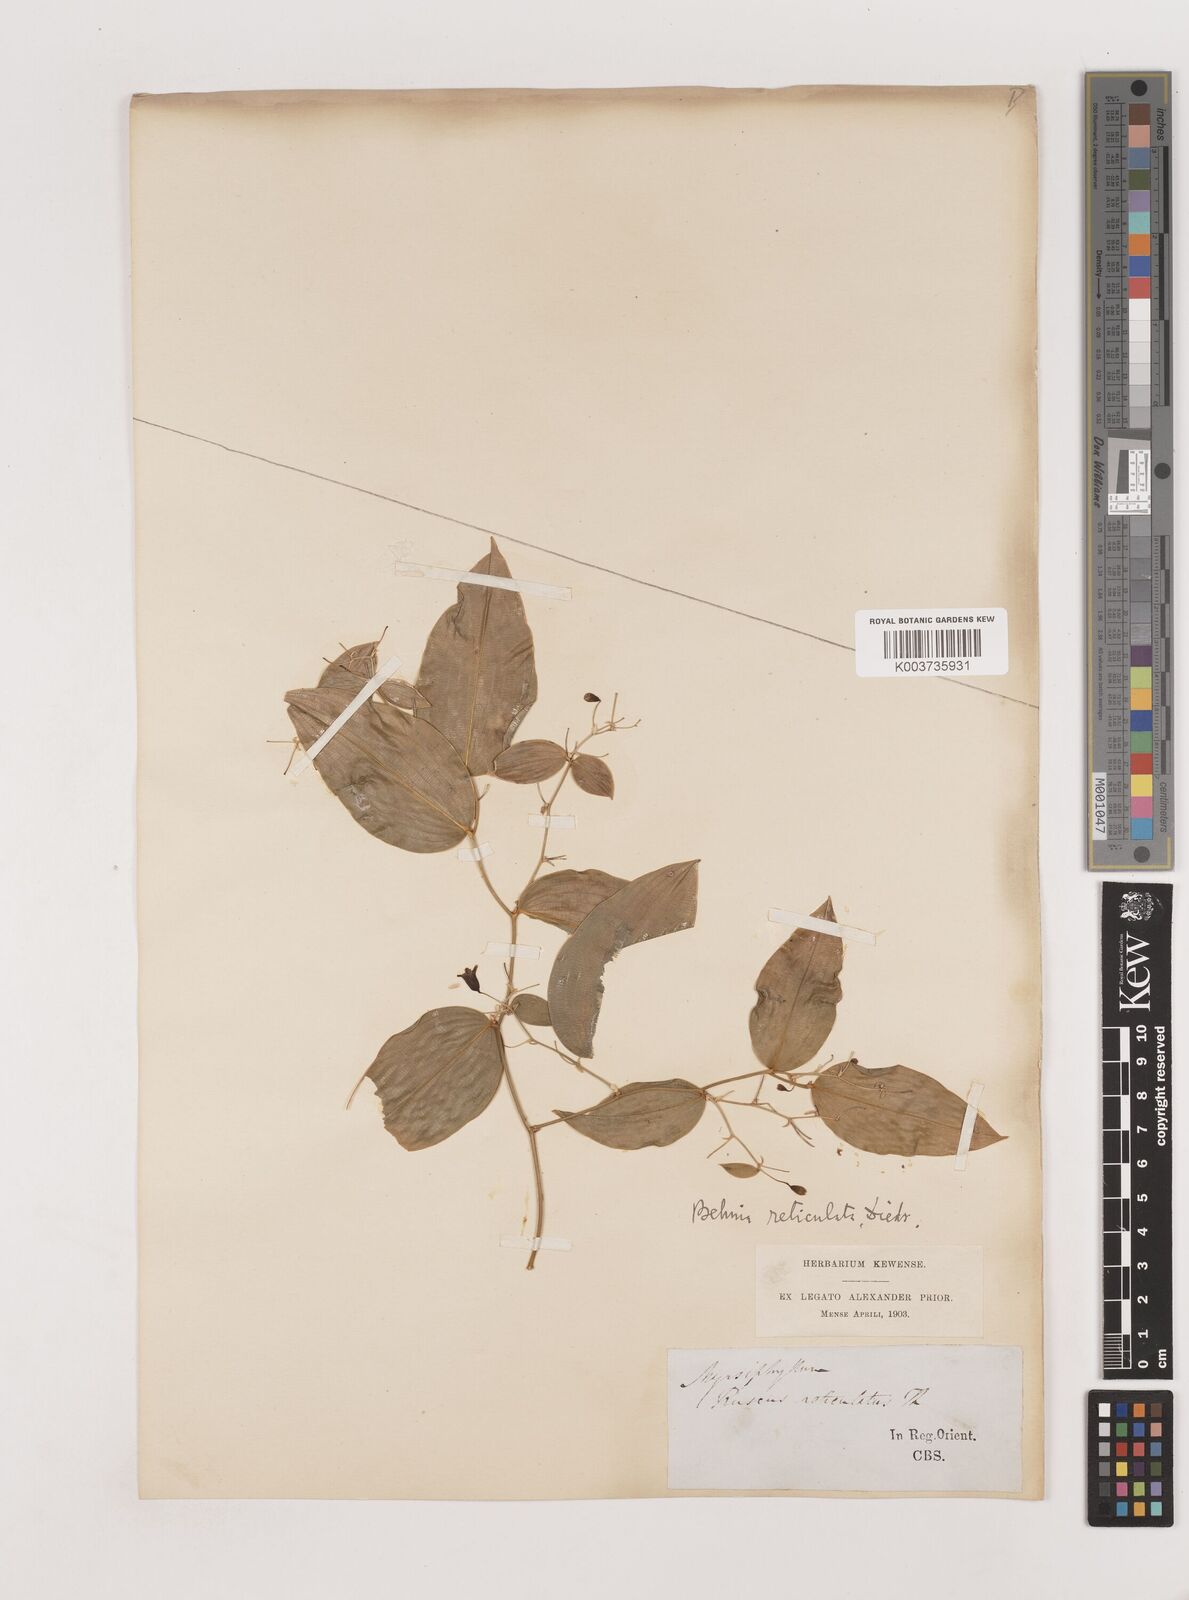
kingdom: Plantae
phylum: Tracheophyta
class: Liliopsida
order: Asparagales
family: Asparagaceae
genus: Behnia
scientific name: Behnia reticulata
